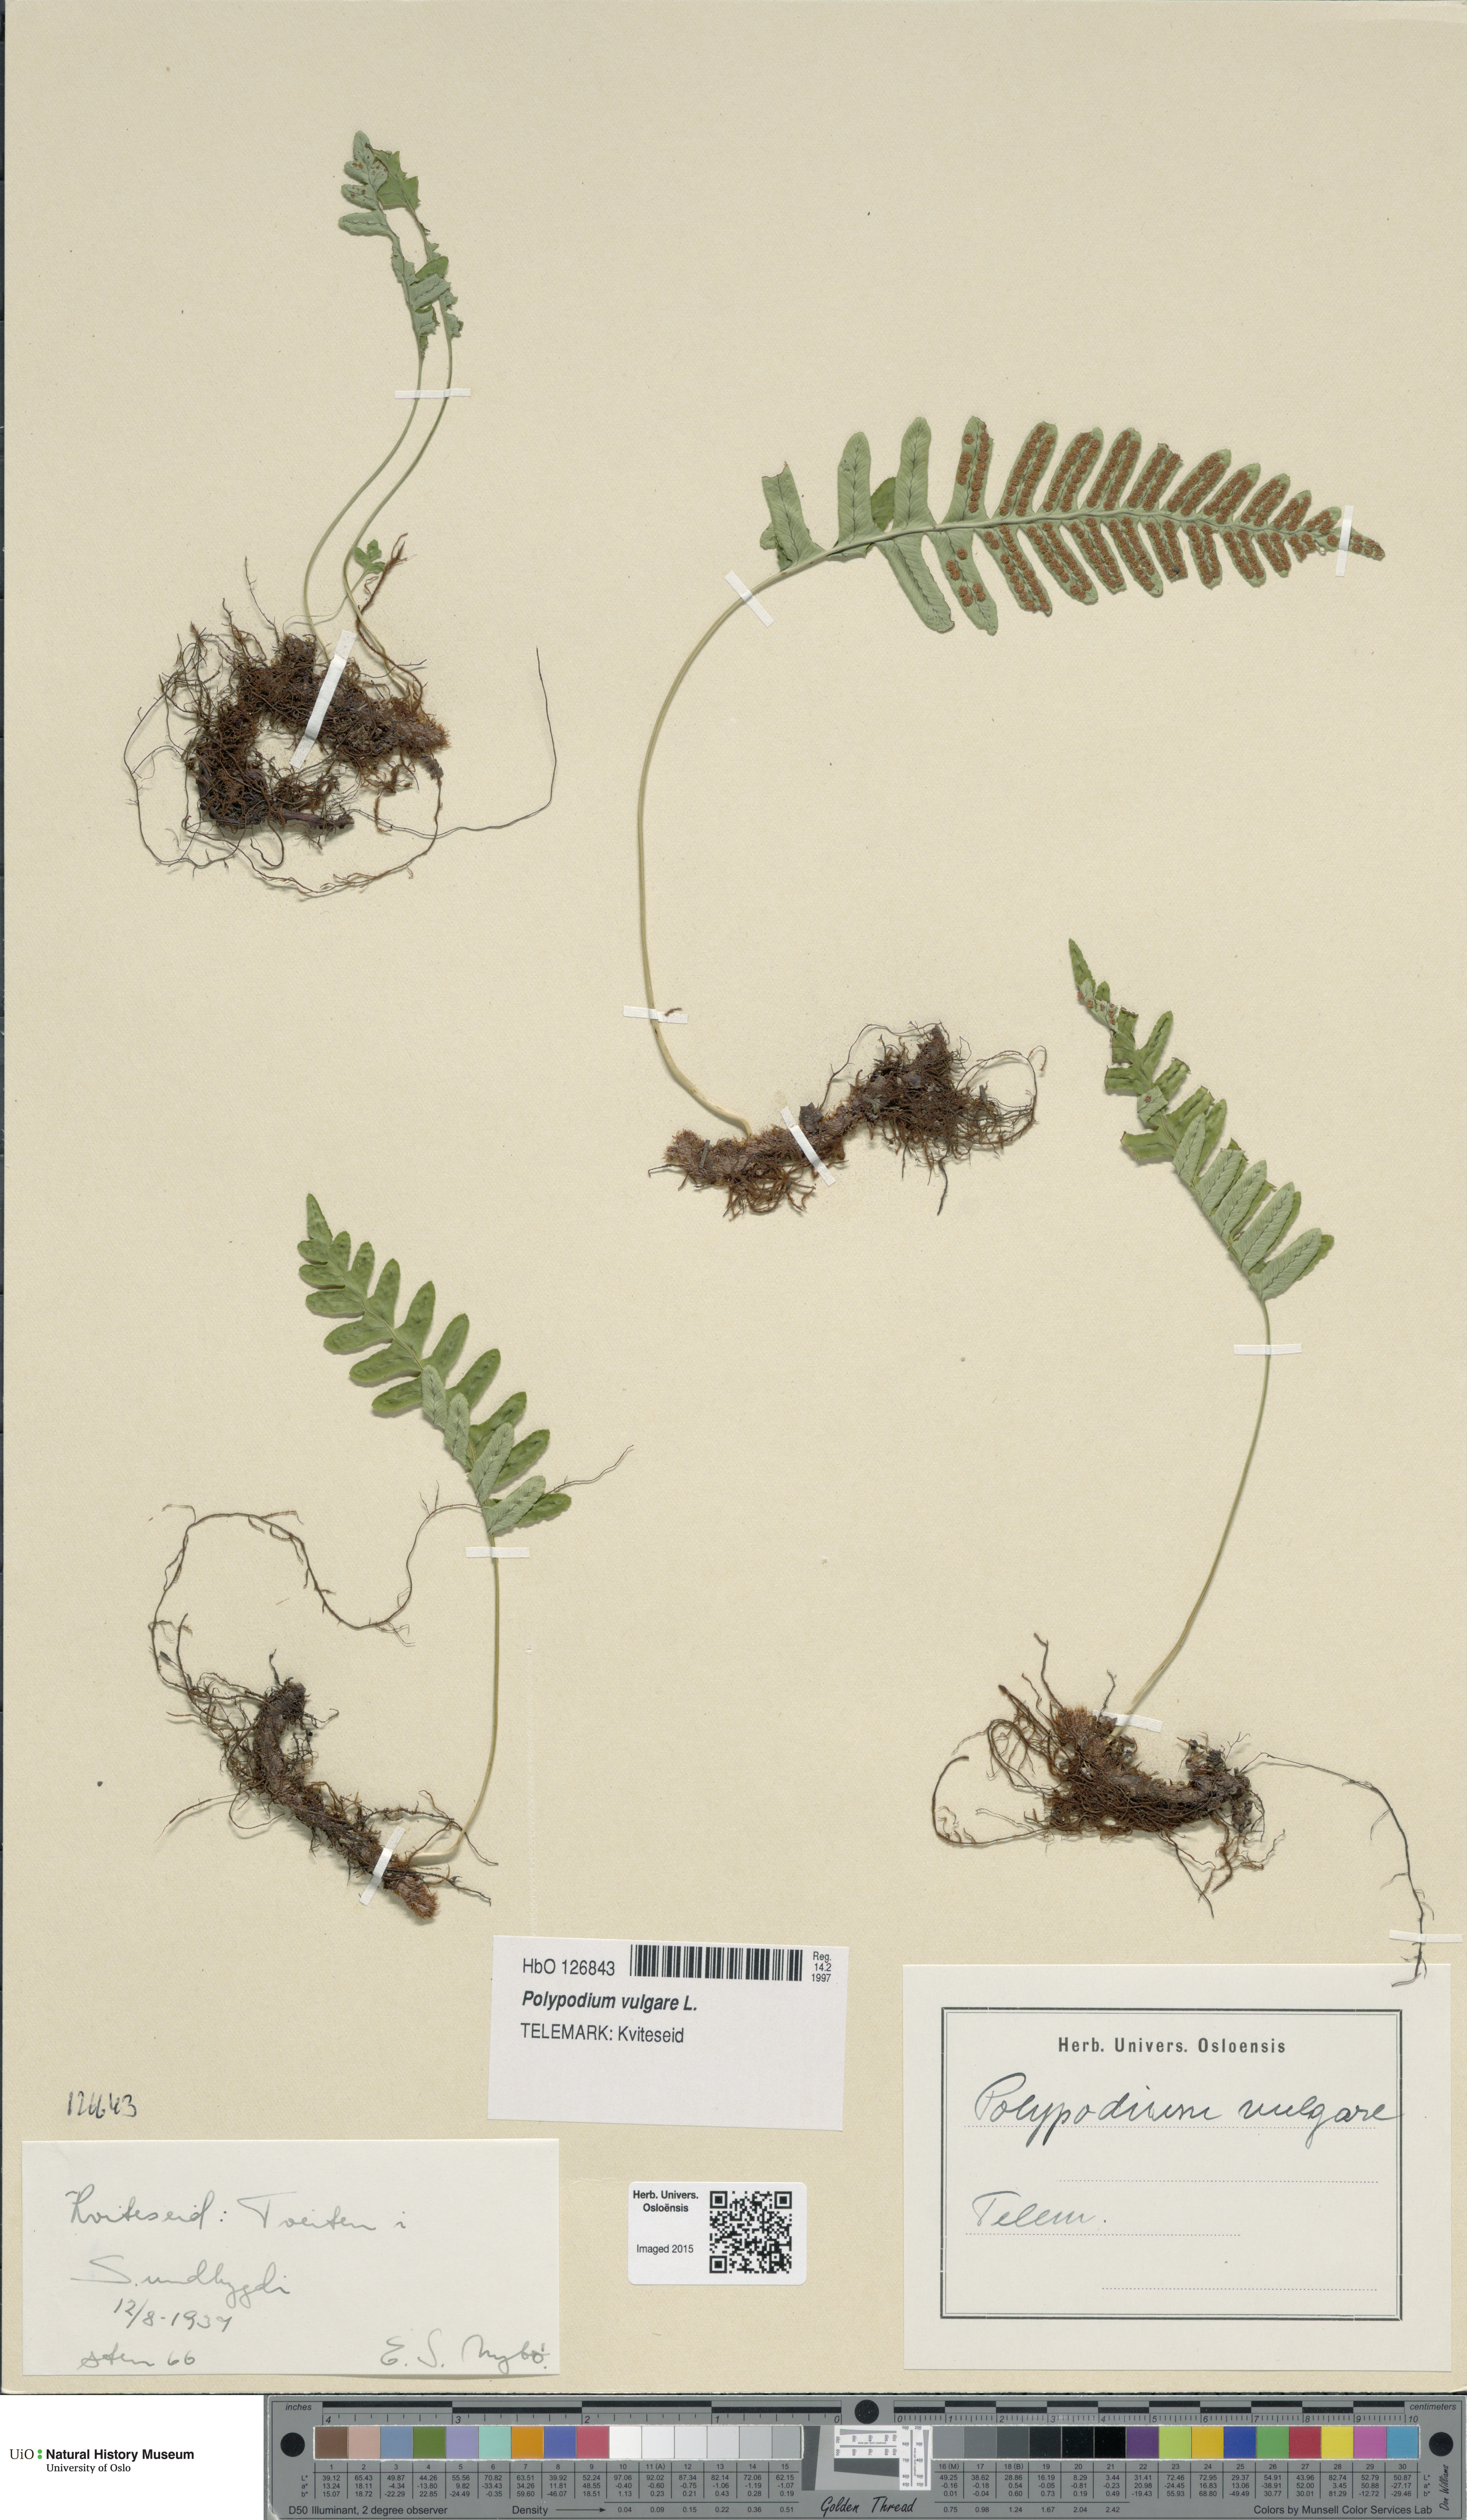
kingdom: Plantae
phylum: Tracheophyta
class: Polypodiopsida
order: Polypodiales
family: Polypodiaceae
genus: Polypodium
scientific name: Polypodium vulgare
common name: Common polypody
